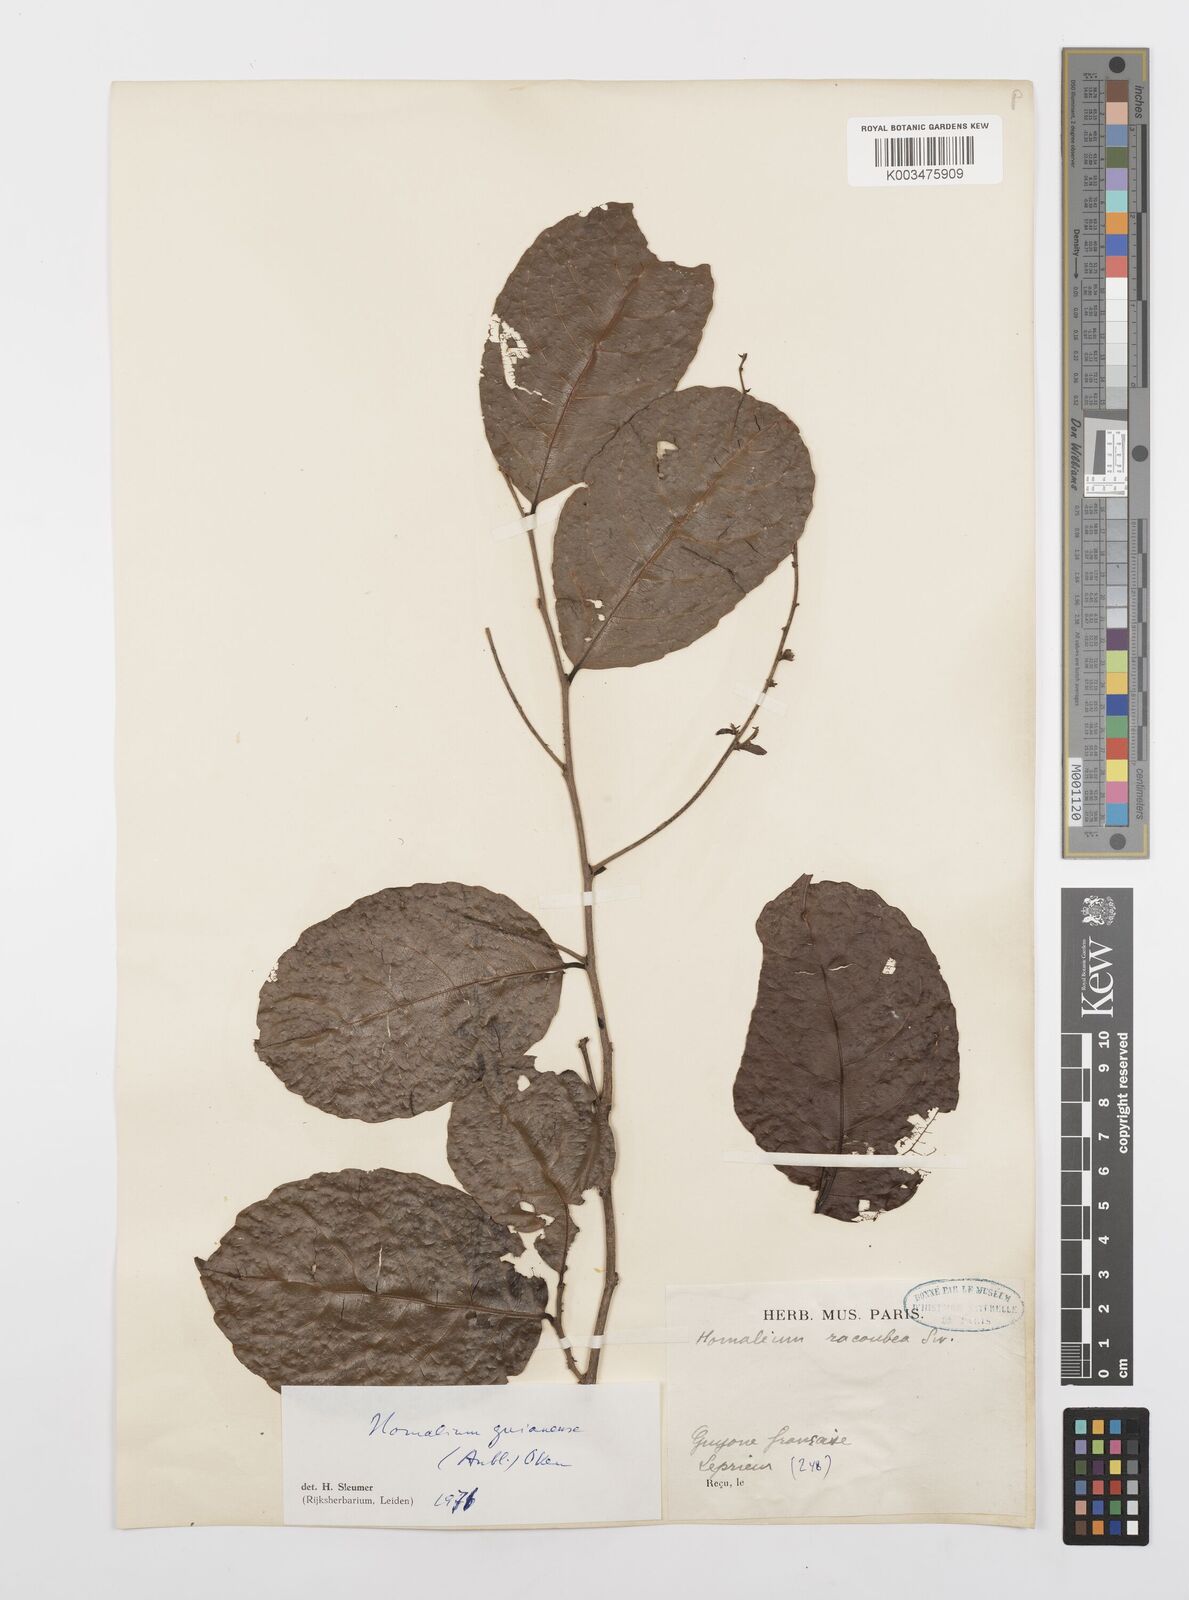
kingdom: Plantae
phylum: Tracheophyta
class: Magnoliopsida
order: Malpighiales
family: Salicaceae
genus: Homalium
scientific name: Homalium guianense
